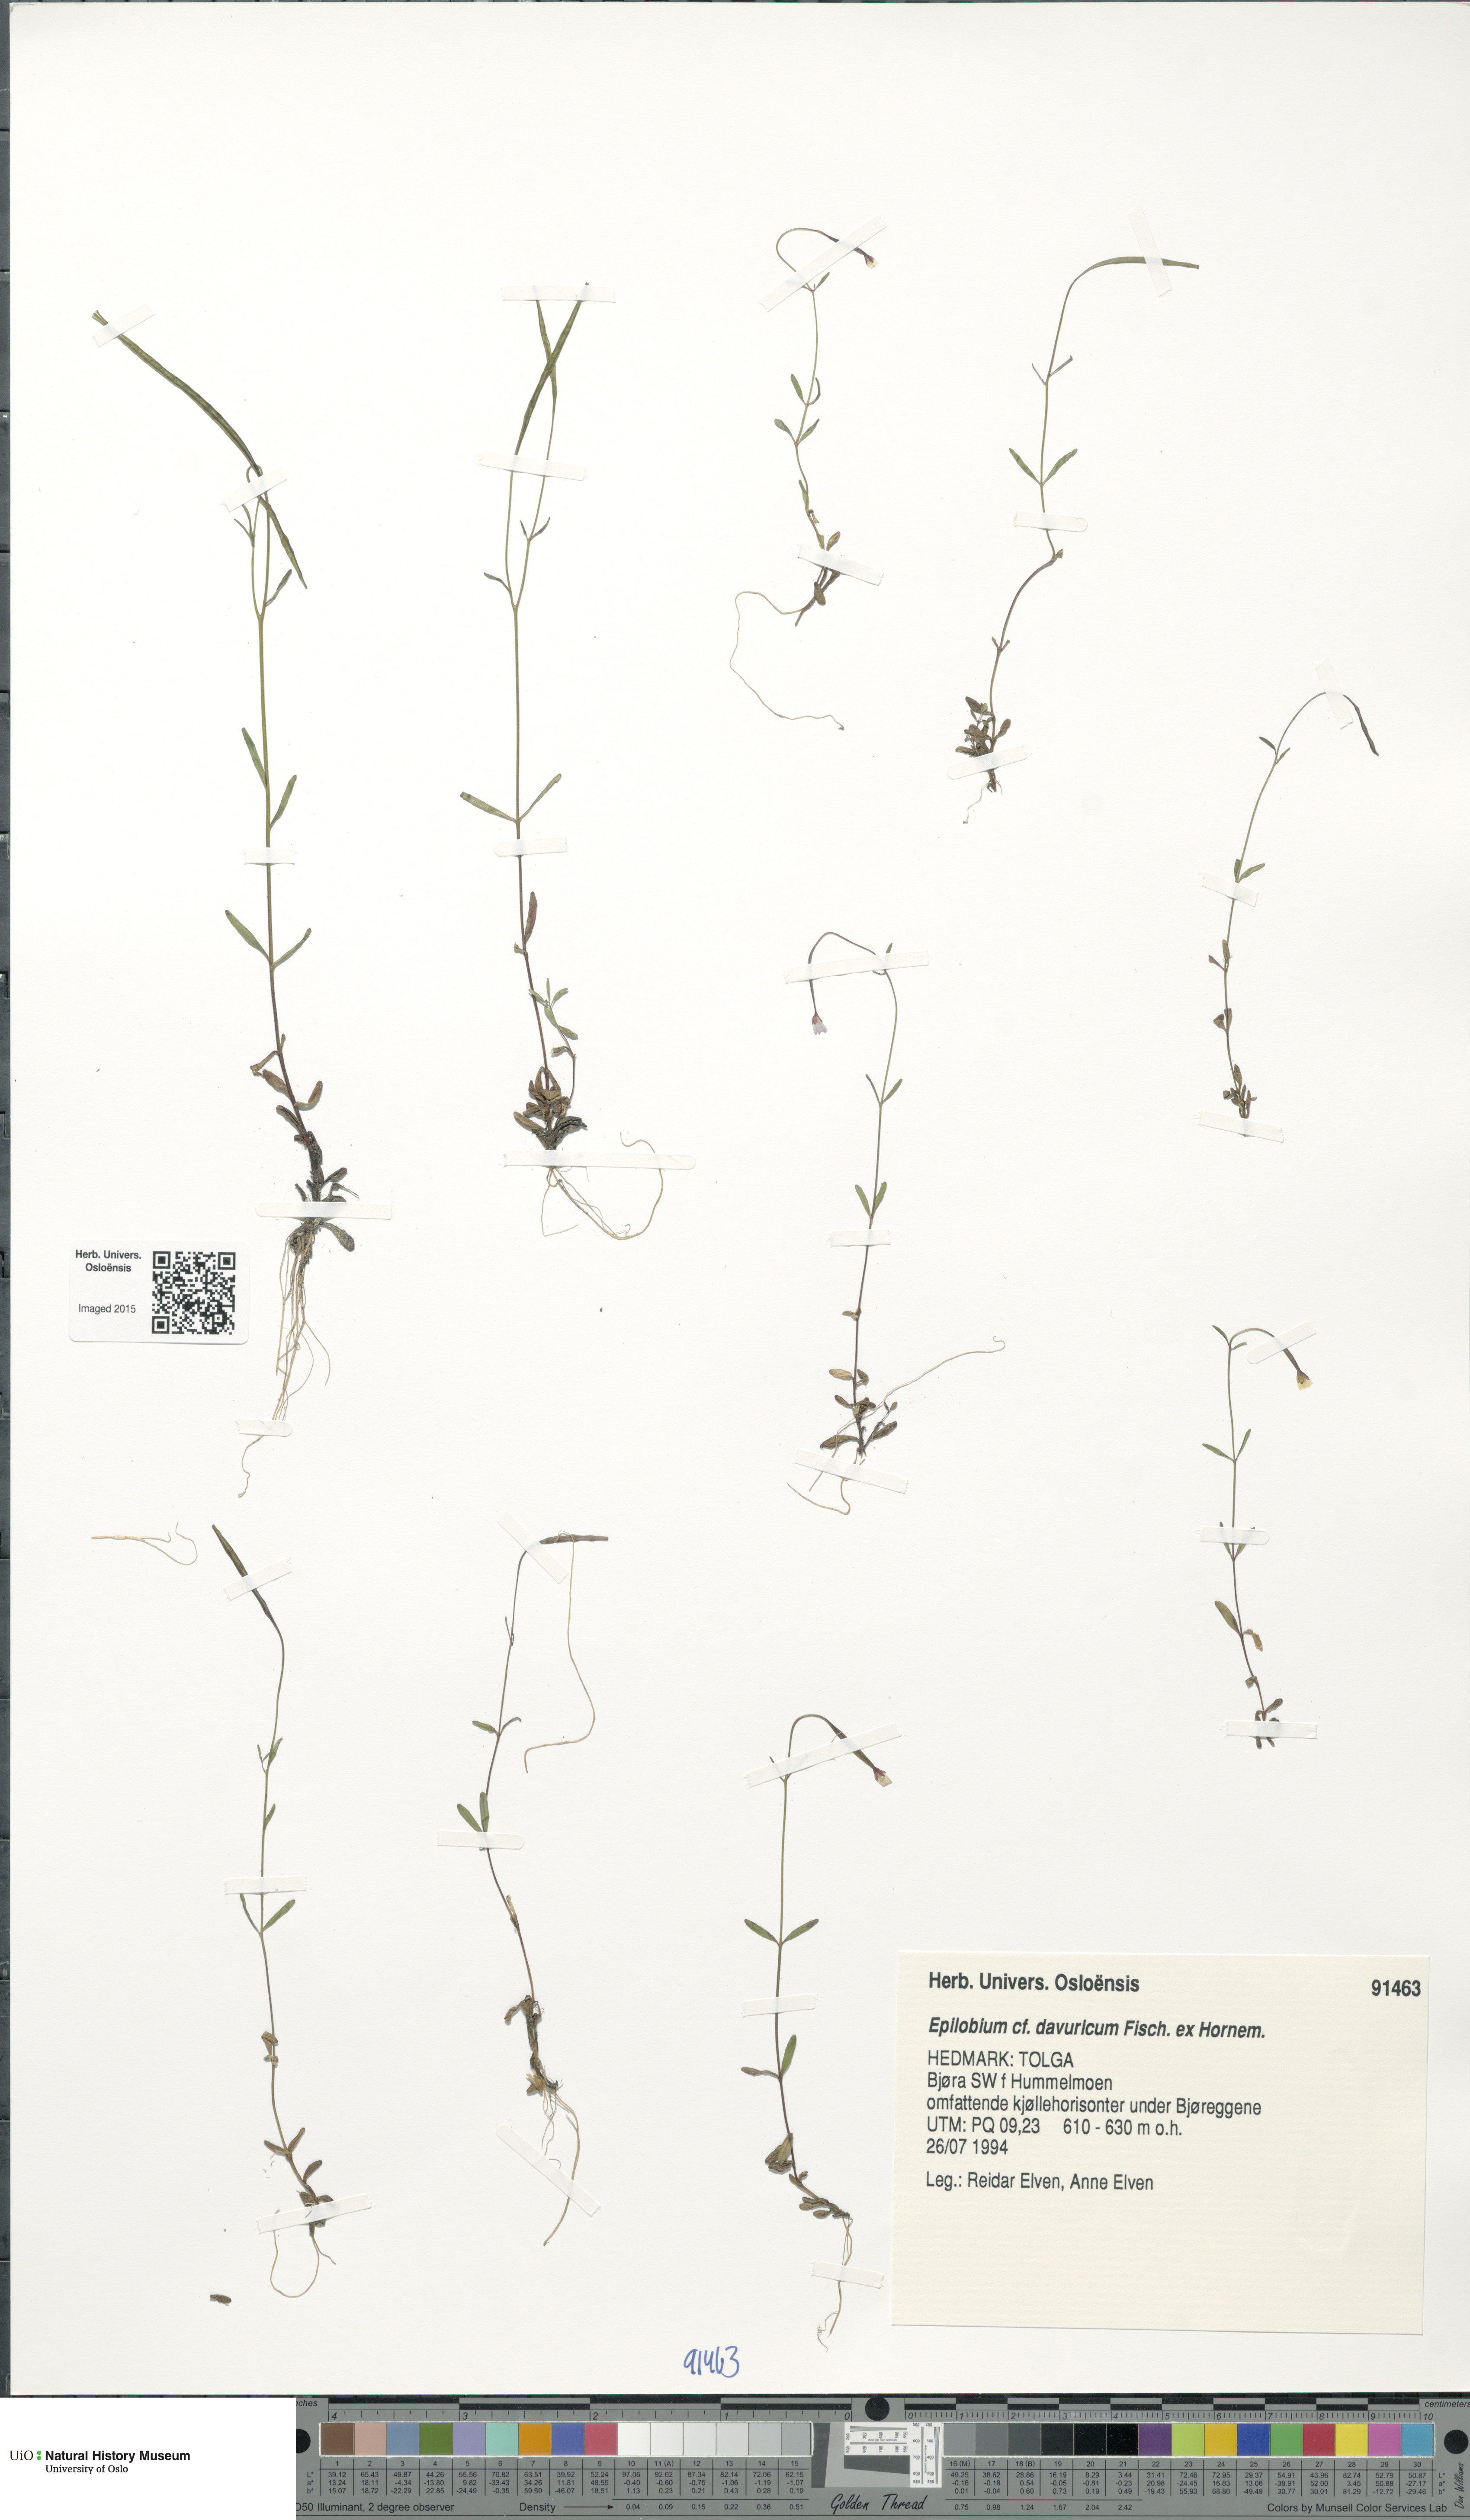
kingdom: Plantae
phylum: Tracheophyta
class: Magnoliopsida
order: Myrtales
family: Onagraceae
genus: Epilobium
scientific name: Epilobium davuricum
